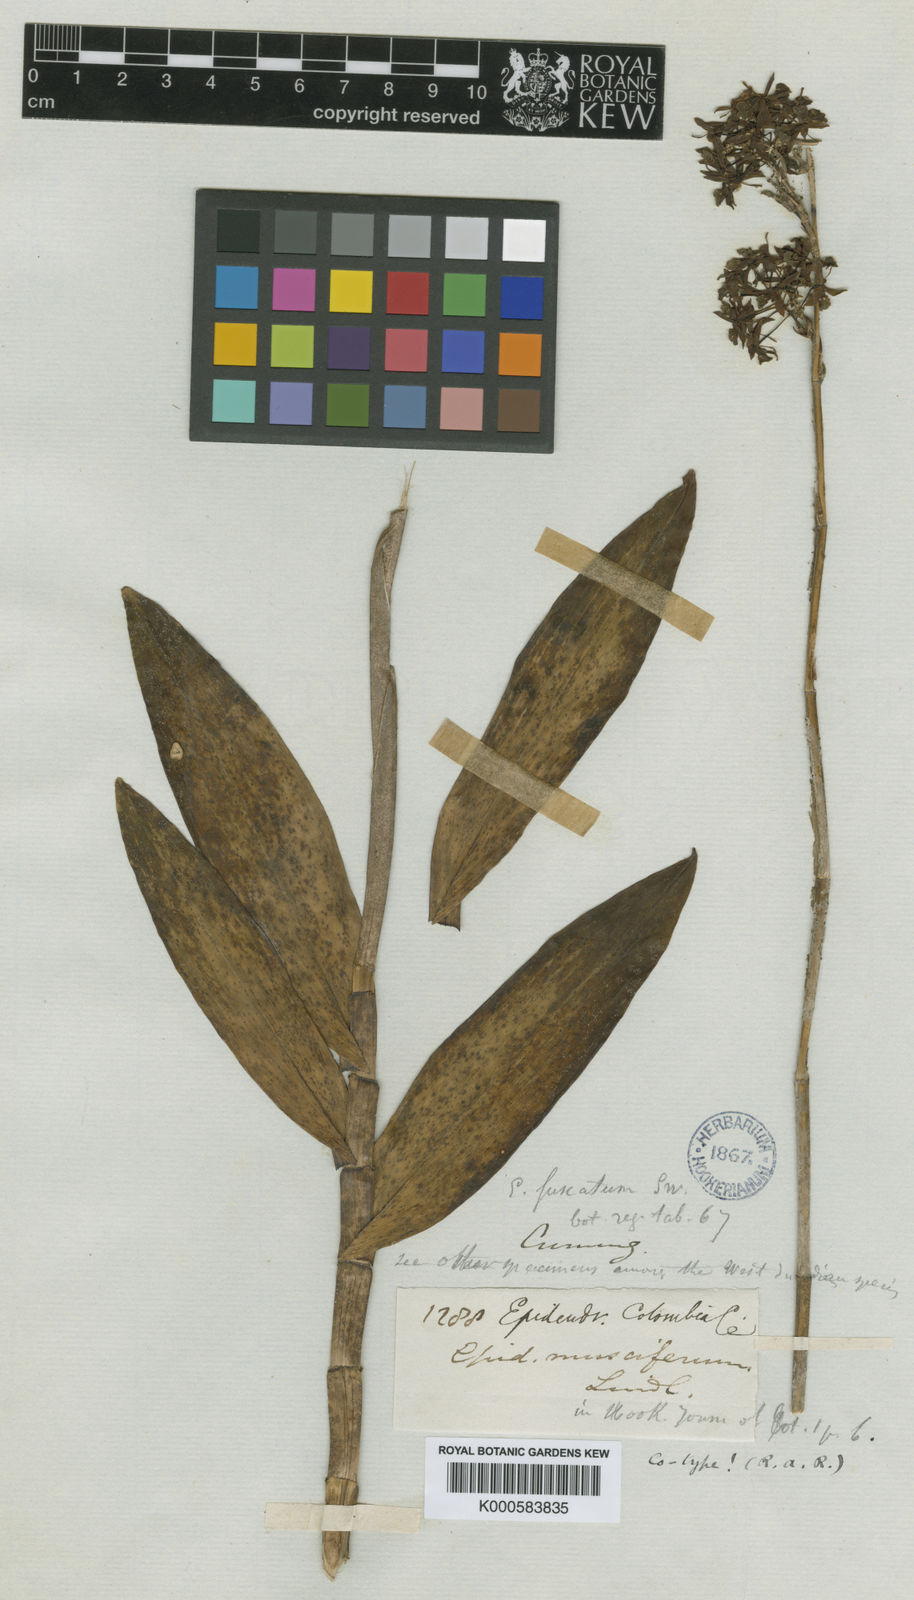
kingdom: Plantae
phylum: Tracheophyta
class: Liliopsida
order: Asparagales
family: Orchidaceae
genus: Epidendrum
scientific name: Epidendrum anceps
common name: Brown-flower butterfly orchid
